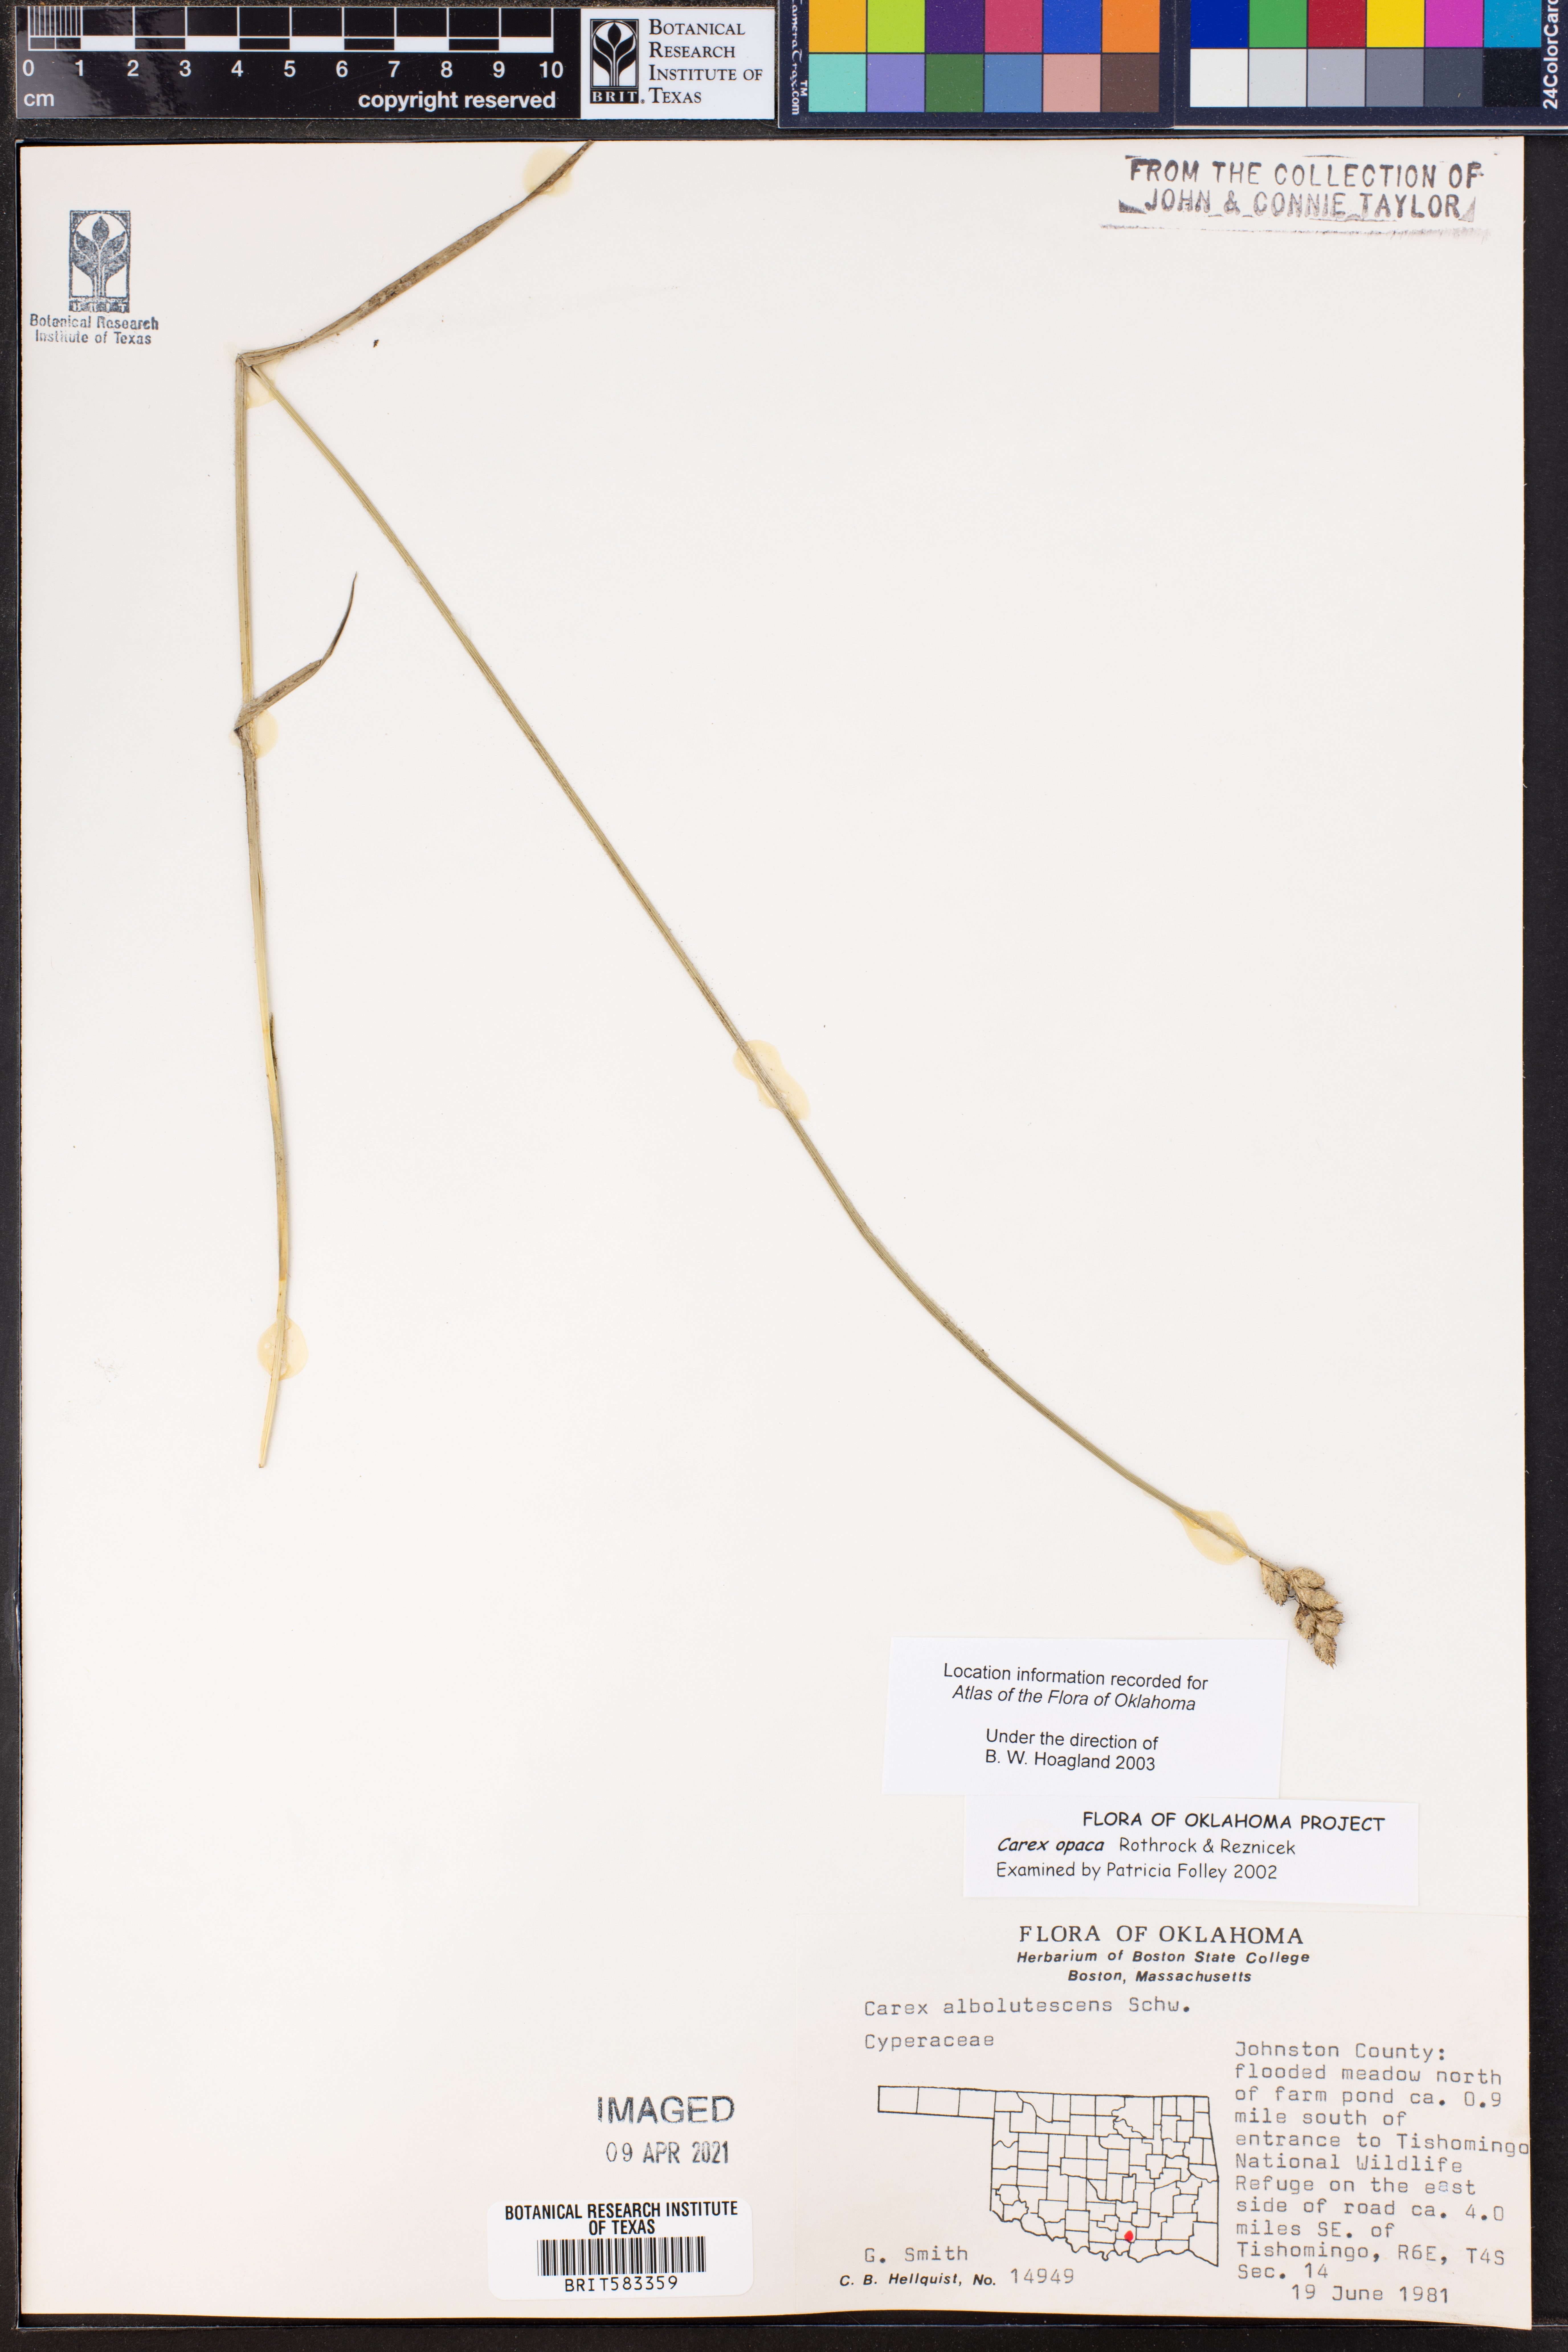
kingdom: Plantae
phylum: Tracheophyta
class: Liliopsida
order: Poales
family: Cyperaceae
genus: Carex
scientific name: Carex opaca
